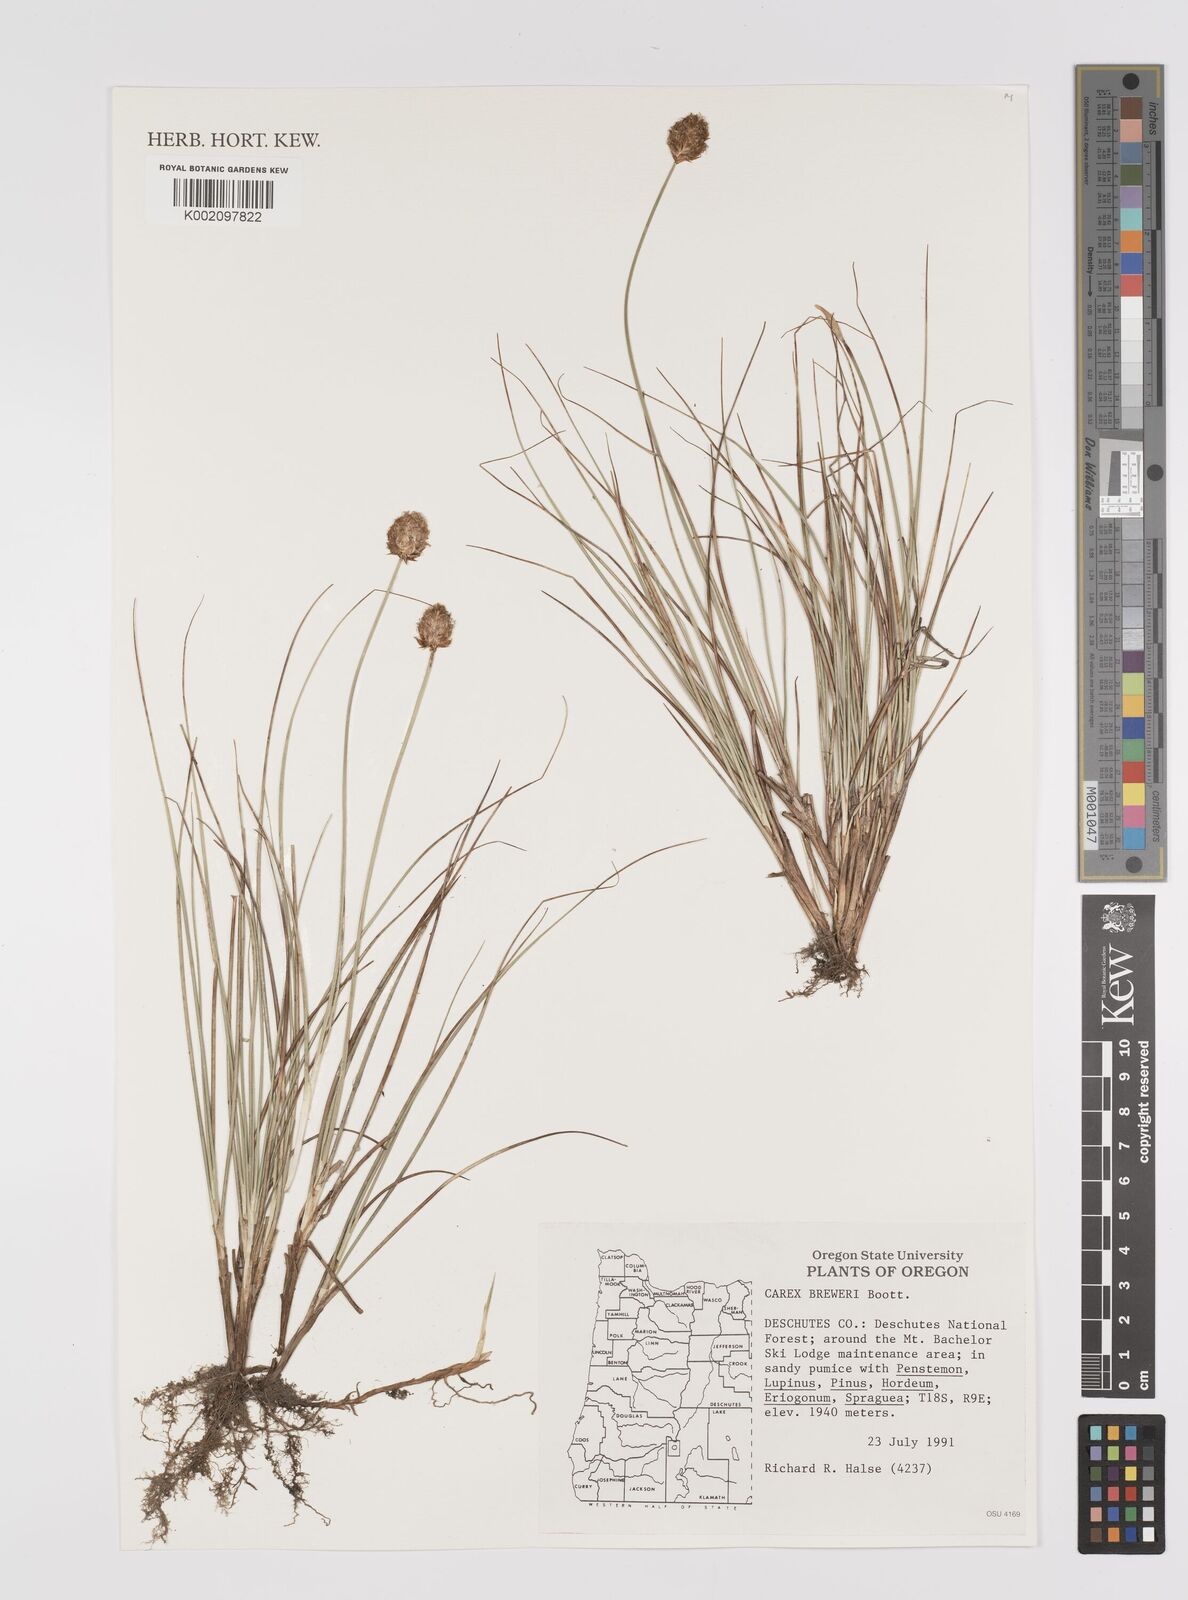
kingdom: Plantae
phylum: Tracheophyta
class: Liliopsida
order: Poales
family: Cyperaceae
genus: Carex
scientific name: Carex breweri
